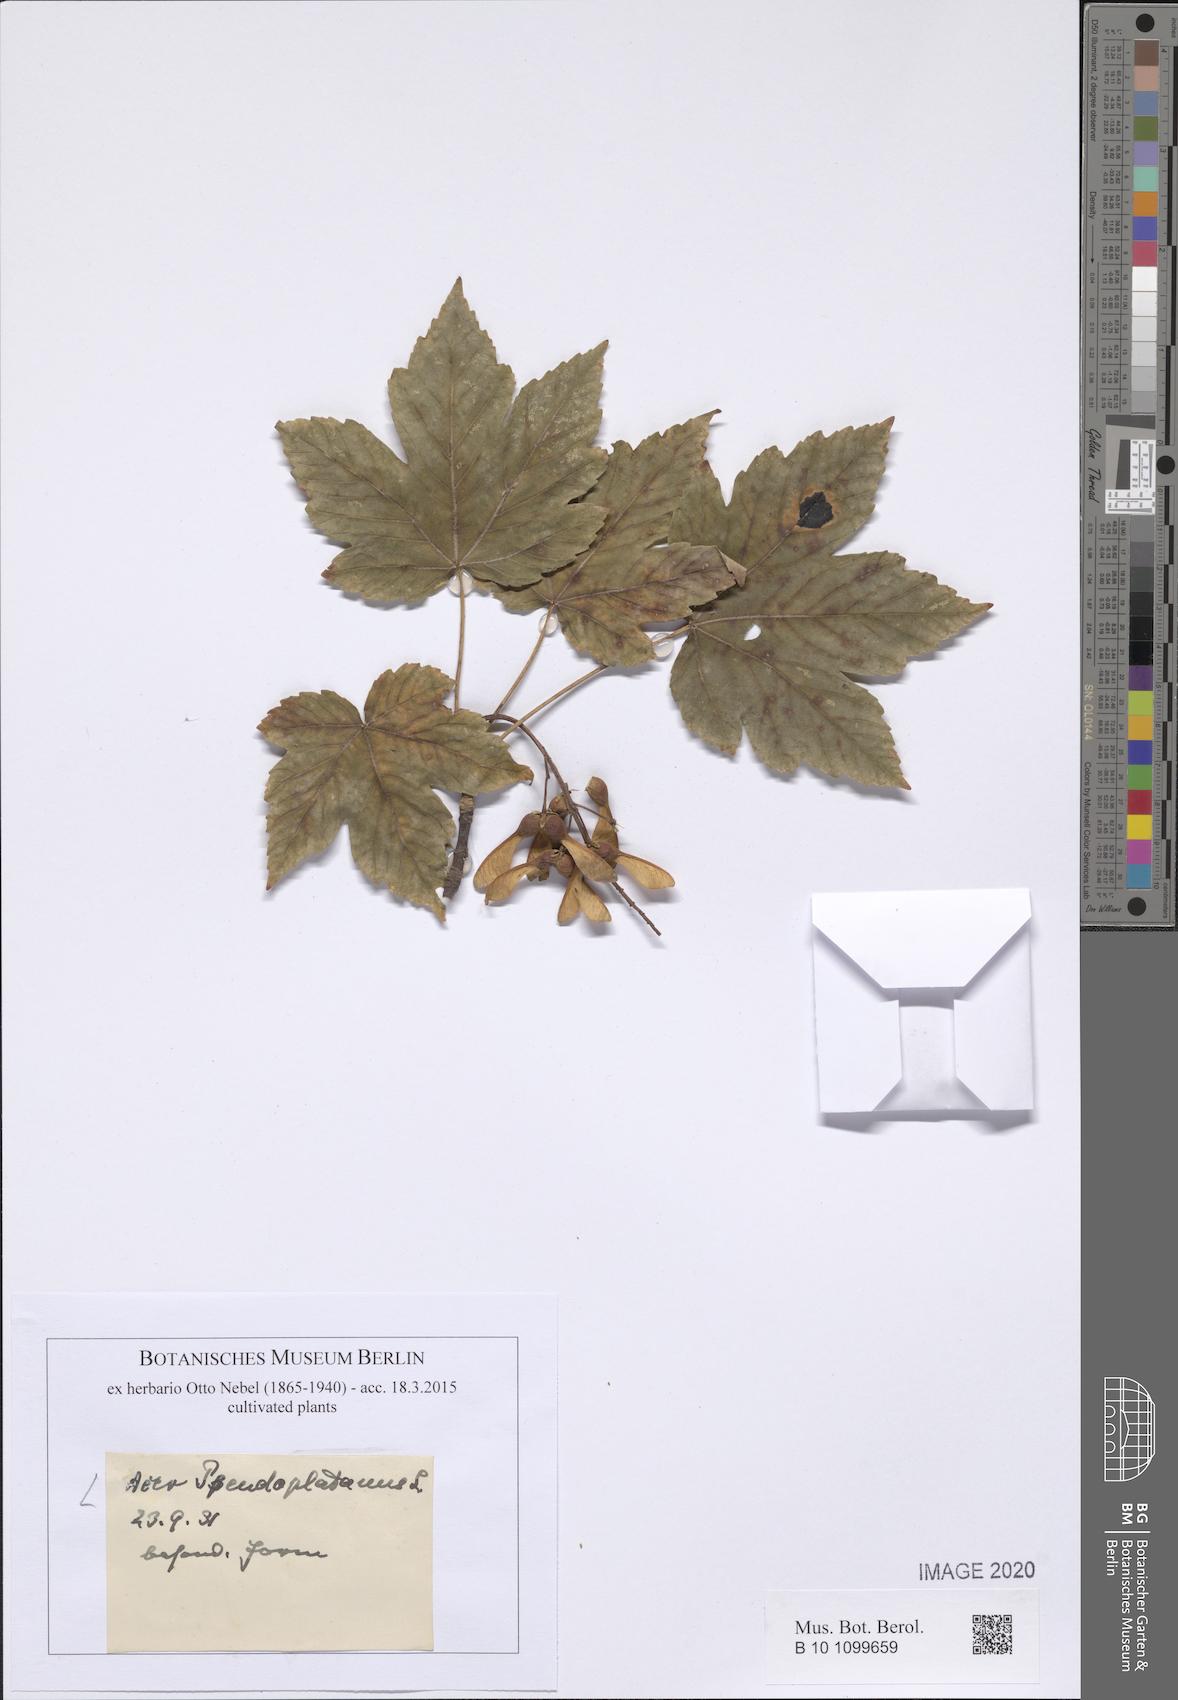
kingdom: Plantae
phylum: Tracheophyta
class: Magnoliopsida
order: Sapindales
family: Sapindaceae
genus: Acer
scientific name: Acer pseudoplatanus
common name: Sycamore
